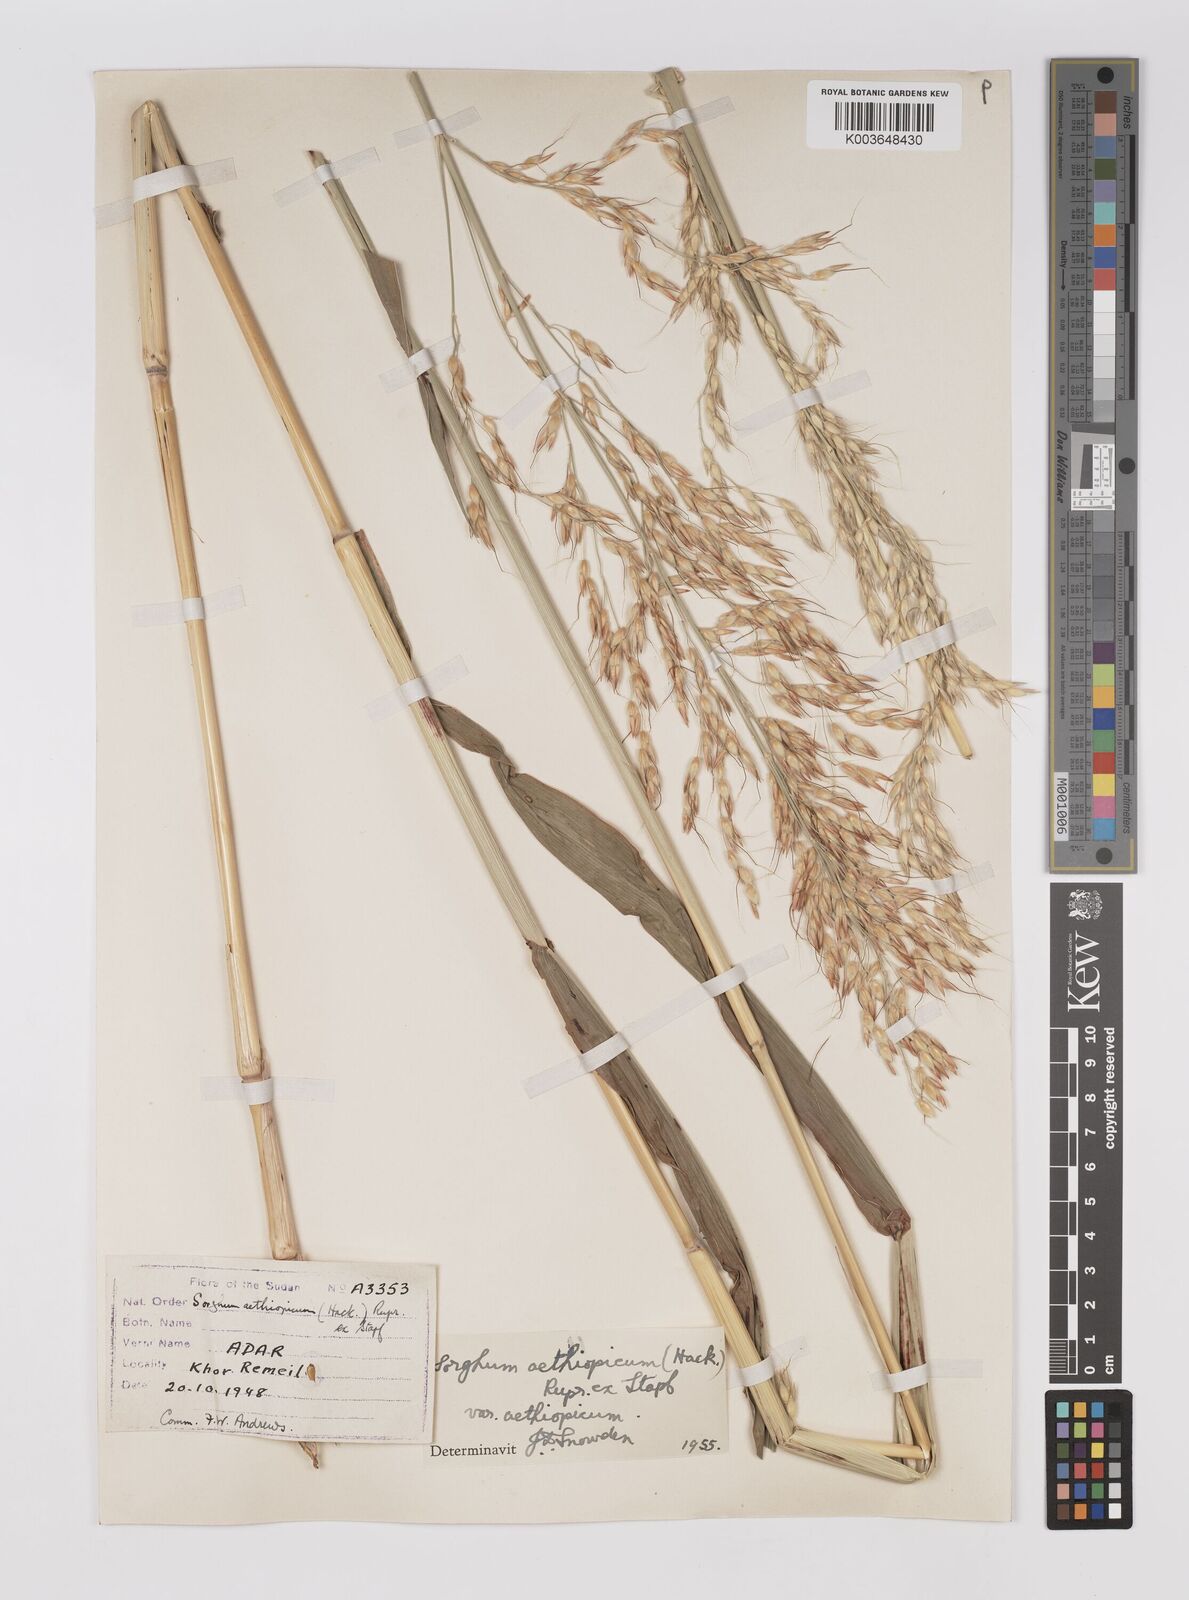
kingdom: Plantae
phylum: Tracheophyta
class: Liliopsida
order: Poales
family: Poaceae
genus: Sorghum
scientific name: Sorghum arundinaceum
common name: Sorghum
